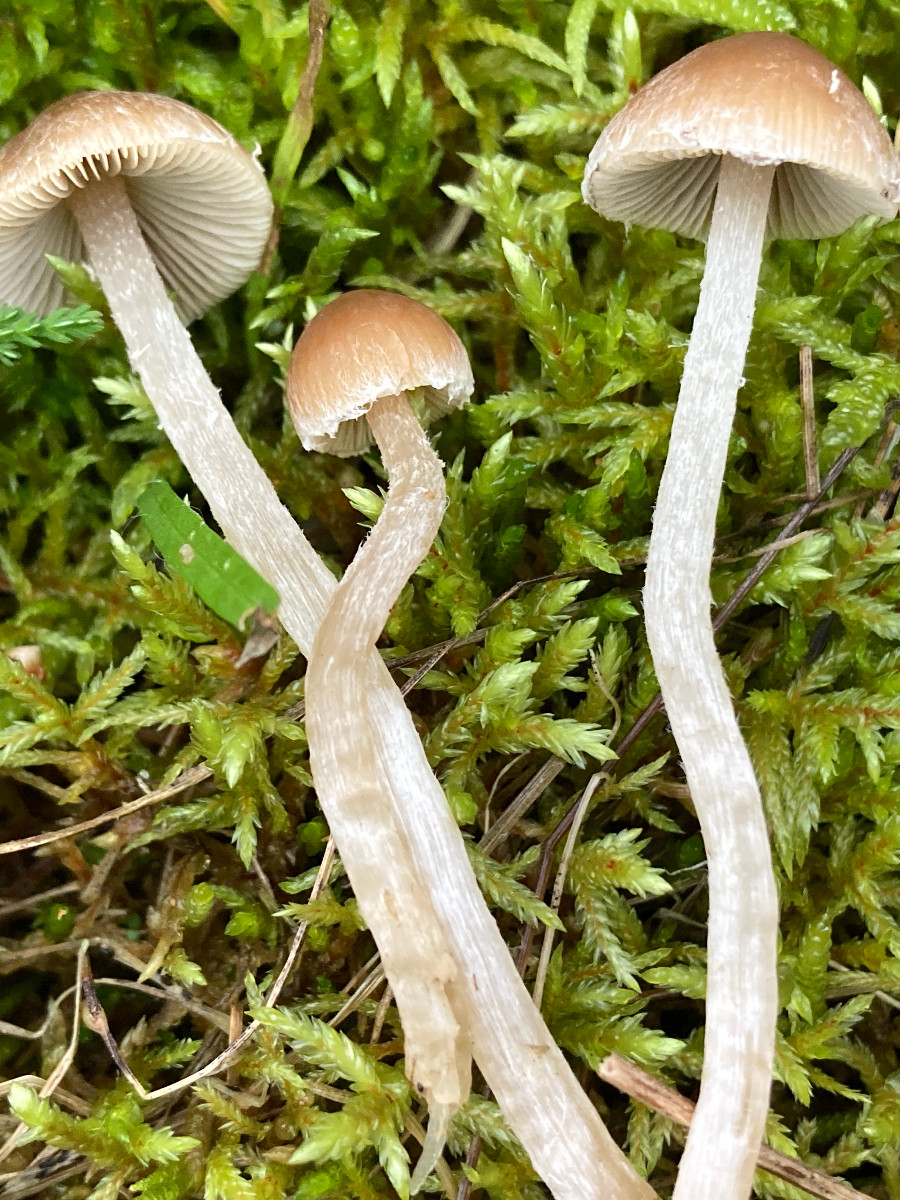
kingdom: Fungi
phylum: Basidiomycota
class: Agaricomycetes
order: Agaricales
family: Psathyrellaceae
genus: Psathyrella
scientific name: Psathyrella
